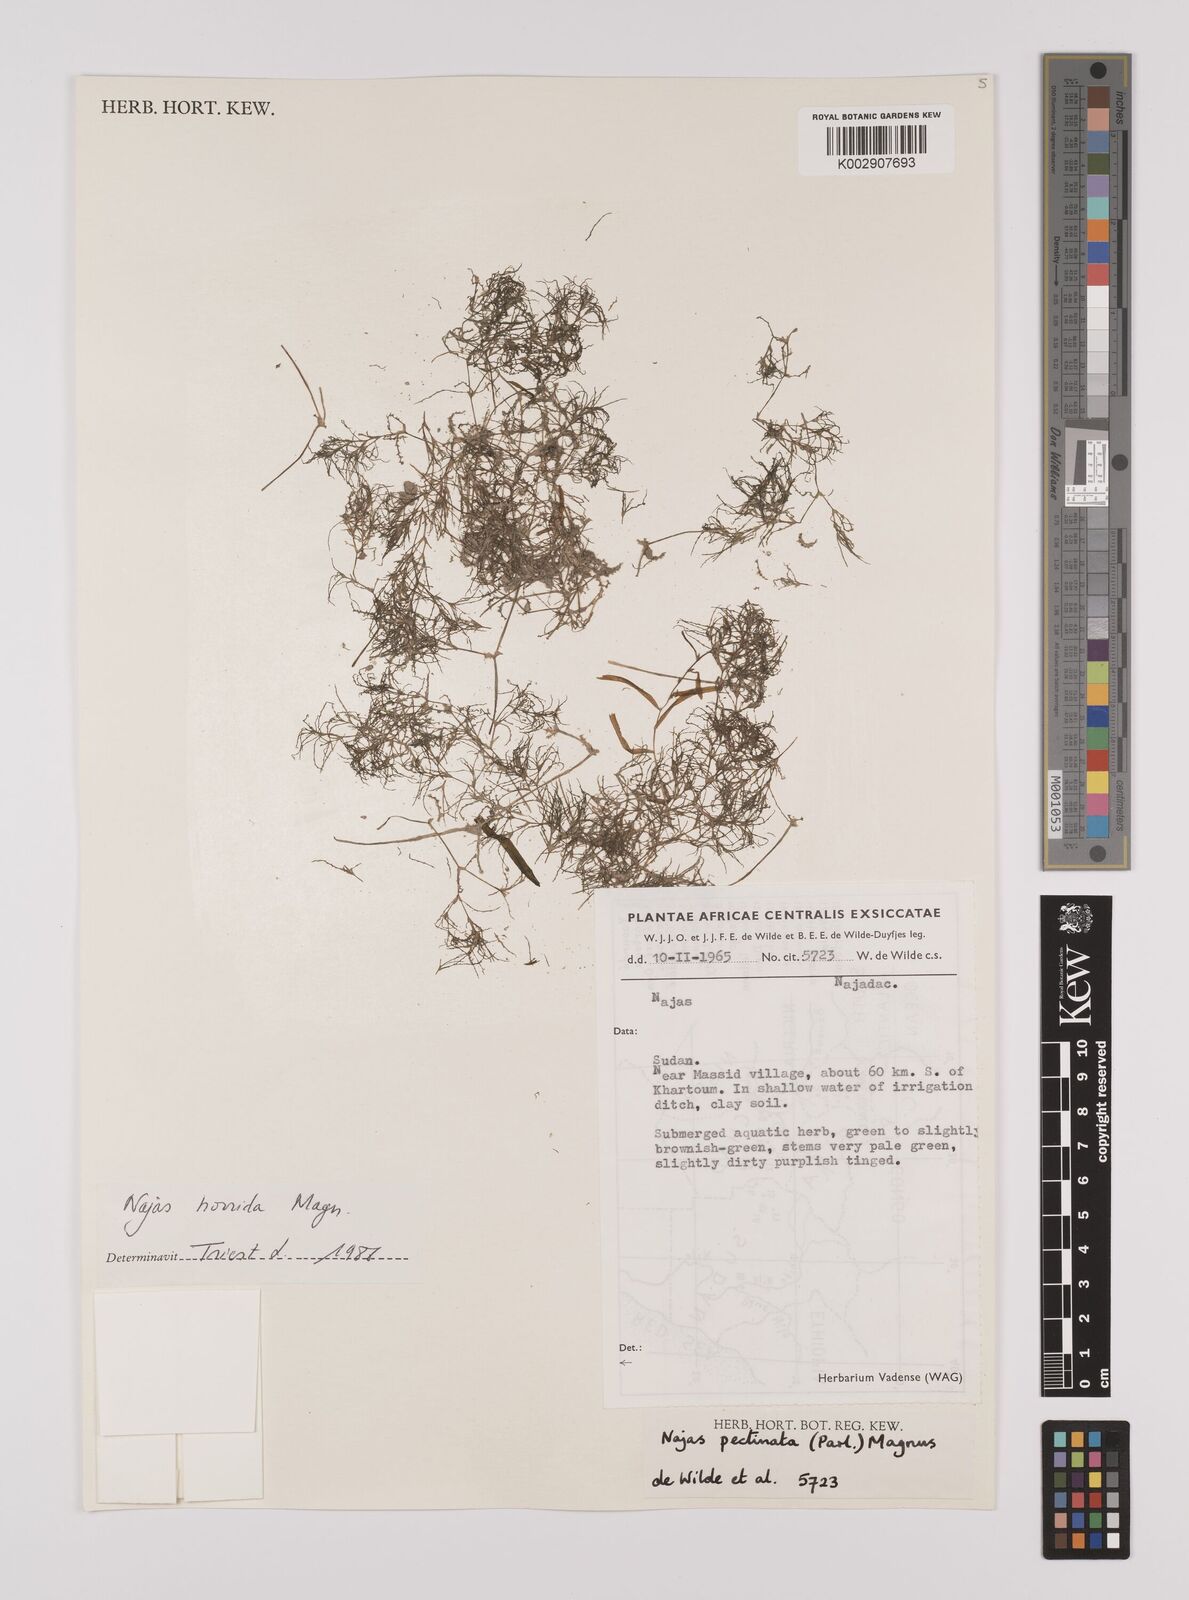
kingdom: Plantae
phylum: Tracheophyta
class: Liliopsida
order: Alismatales
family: Hydrocharitaceae
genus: Najas
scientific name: Najas horrida
